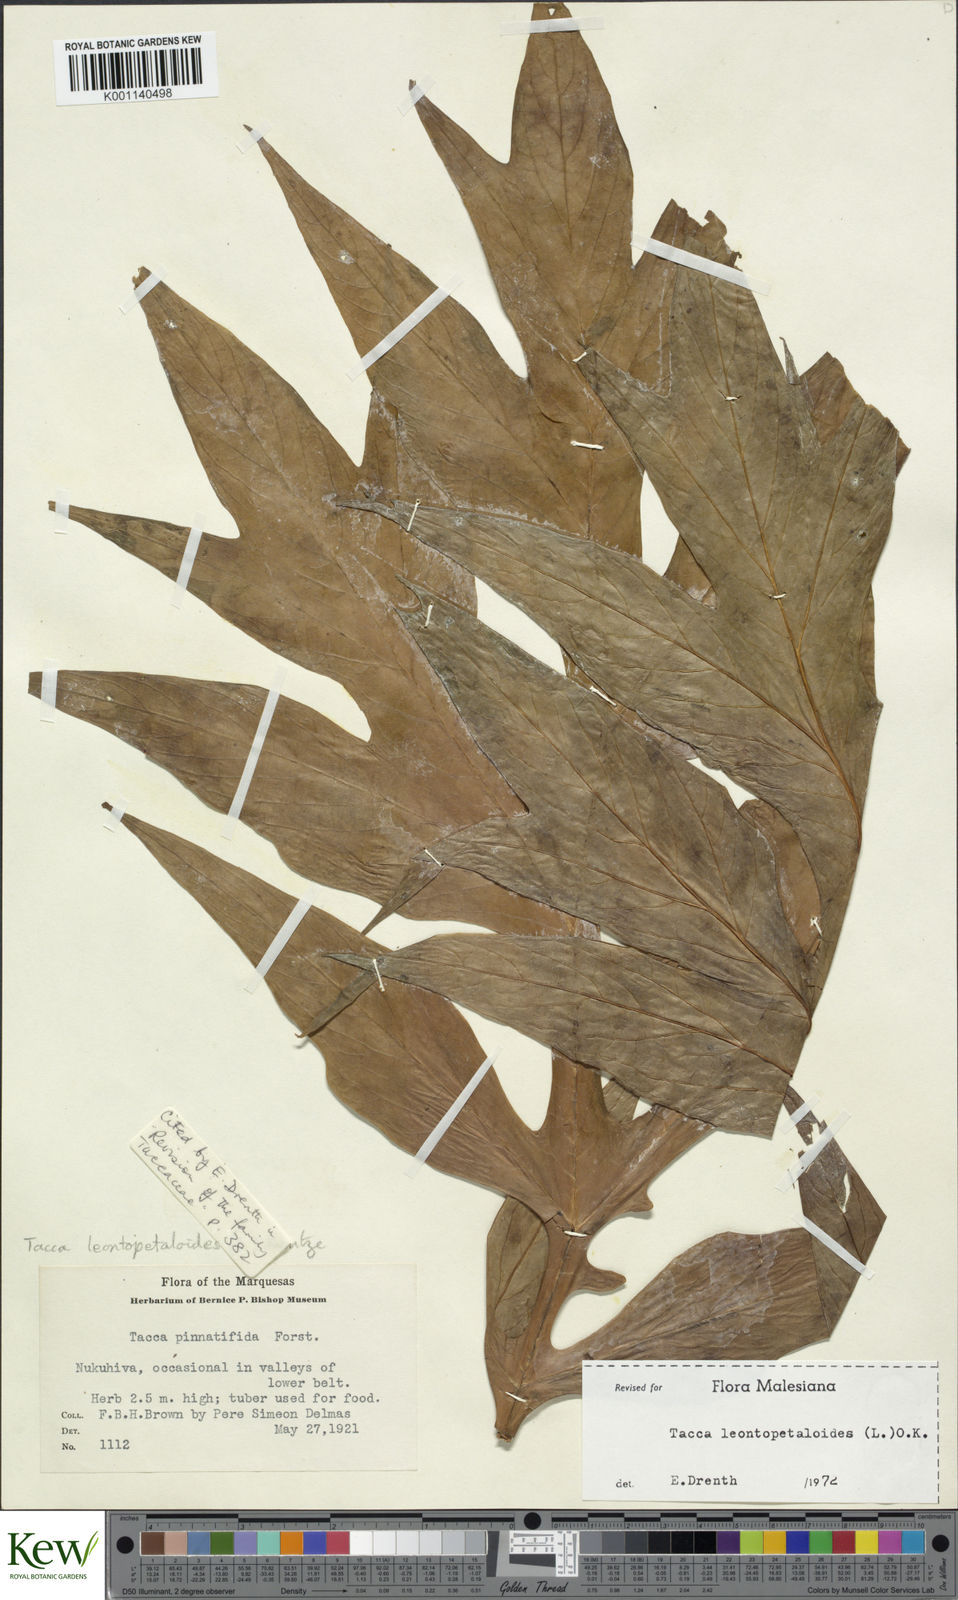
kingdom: Plantae
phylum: Tracheophyta
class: Liliopsida
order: Dioscoreales
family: Dioscoreaceae
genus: Tacca
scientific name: Tacca leontopetaloides
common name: Arrowroot
